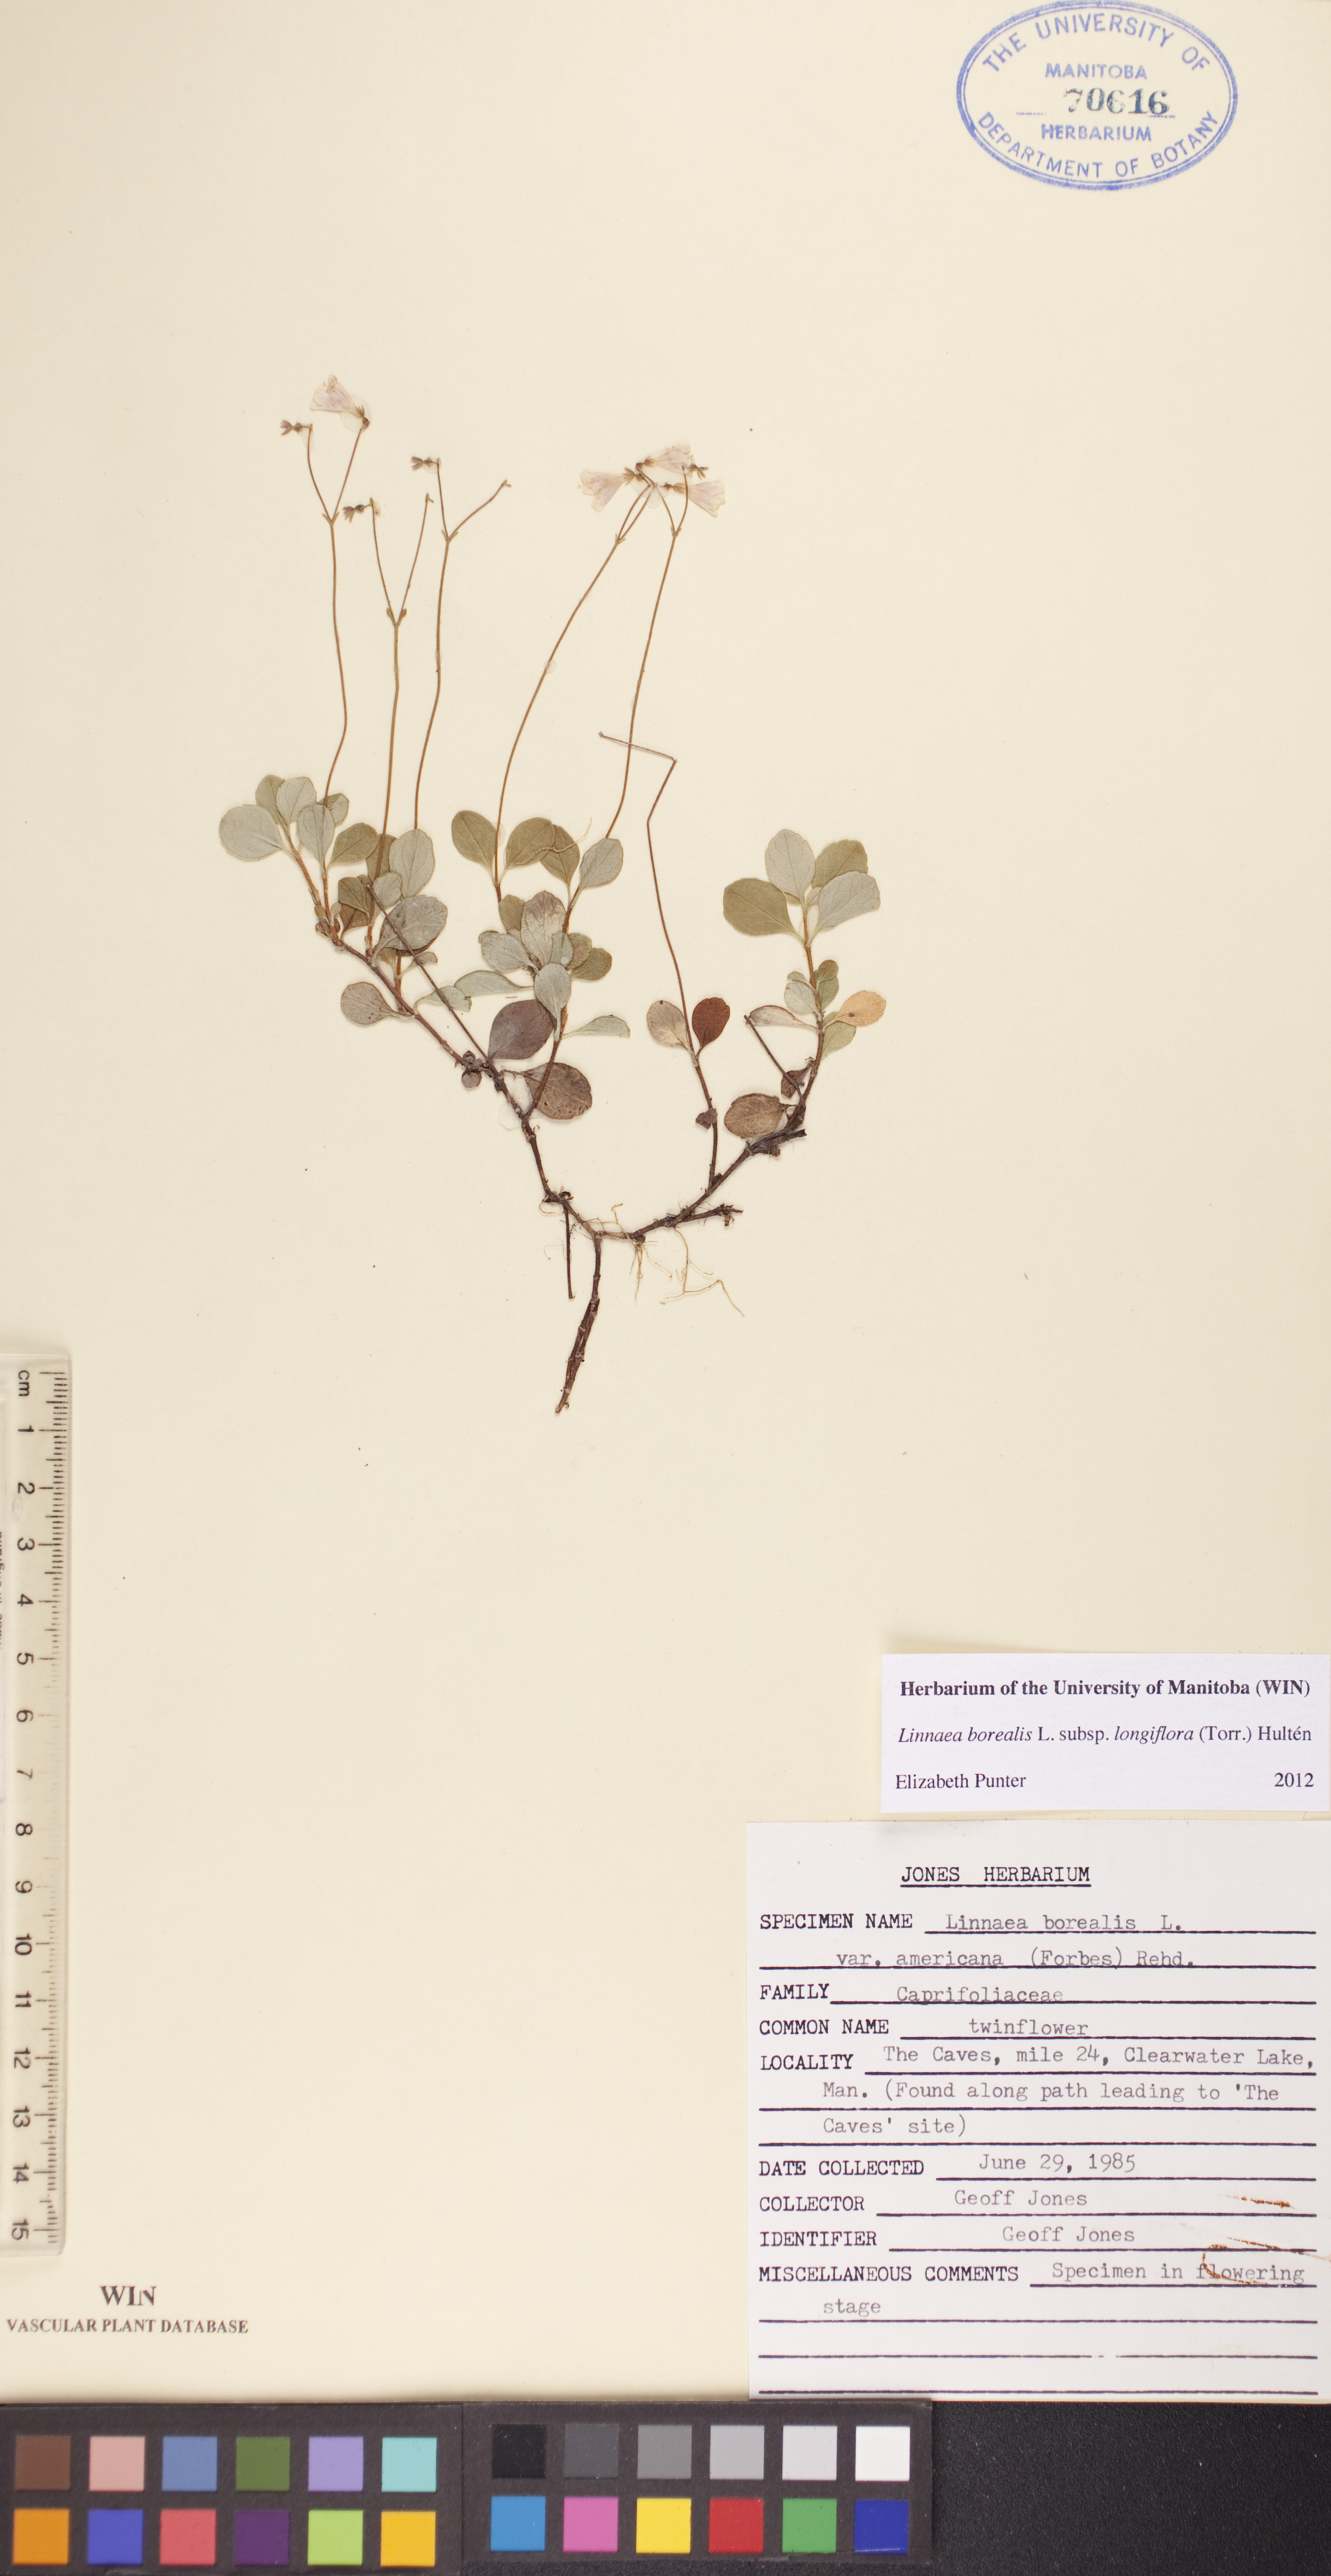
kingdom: Plantae
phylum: Tracheophyta
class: Magnoliopsida
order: Dipsacales
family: Caprifoliaceae
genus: Linnaea
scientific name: Linnaea borealis
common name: Twinflower
